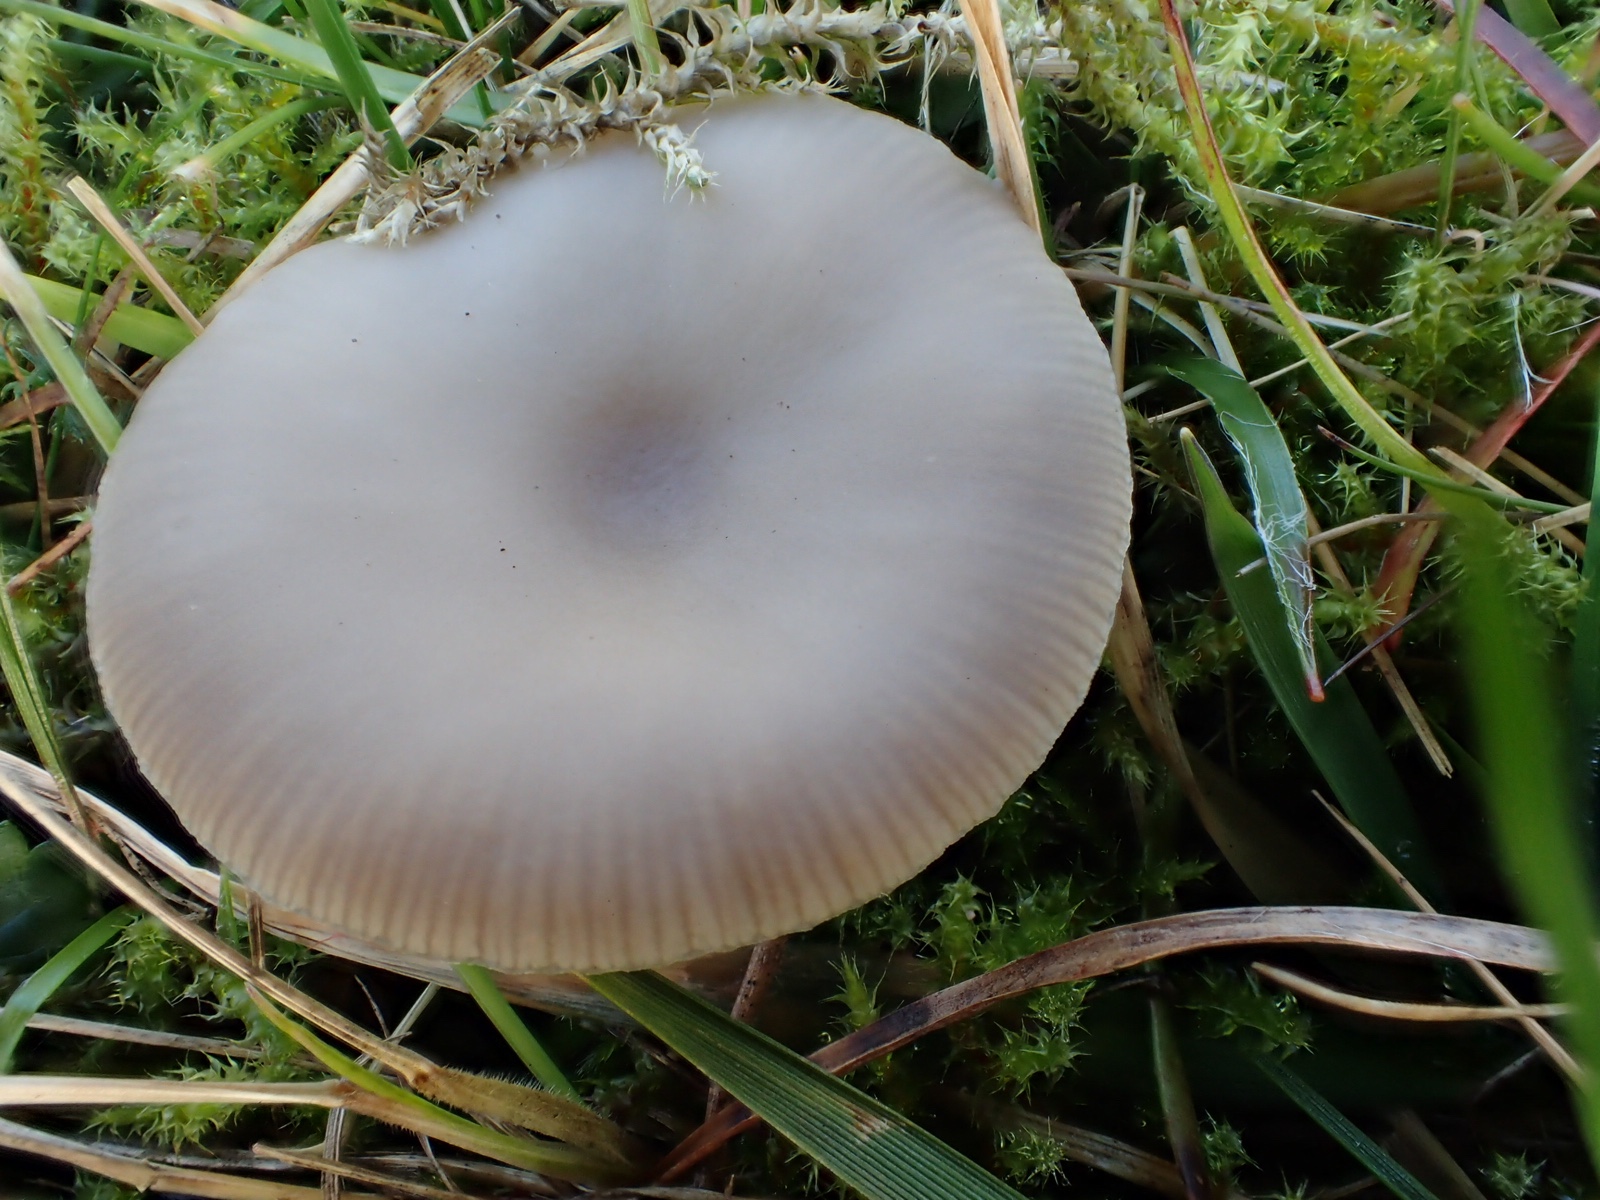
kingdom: Fungi
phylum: Basidiomycota
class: Agaricomycetes
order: Agaricales
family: Tricholomataceae
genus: Clitocybe
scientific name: Clitocybe
